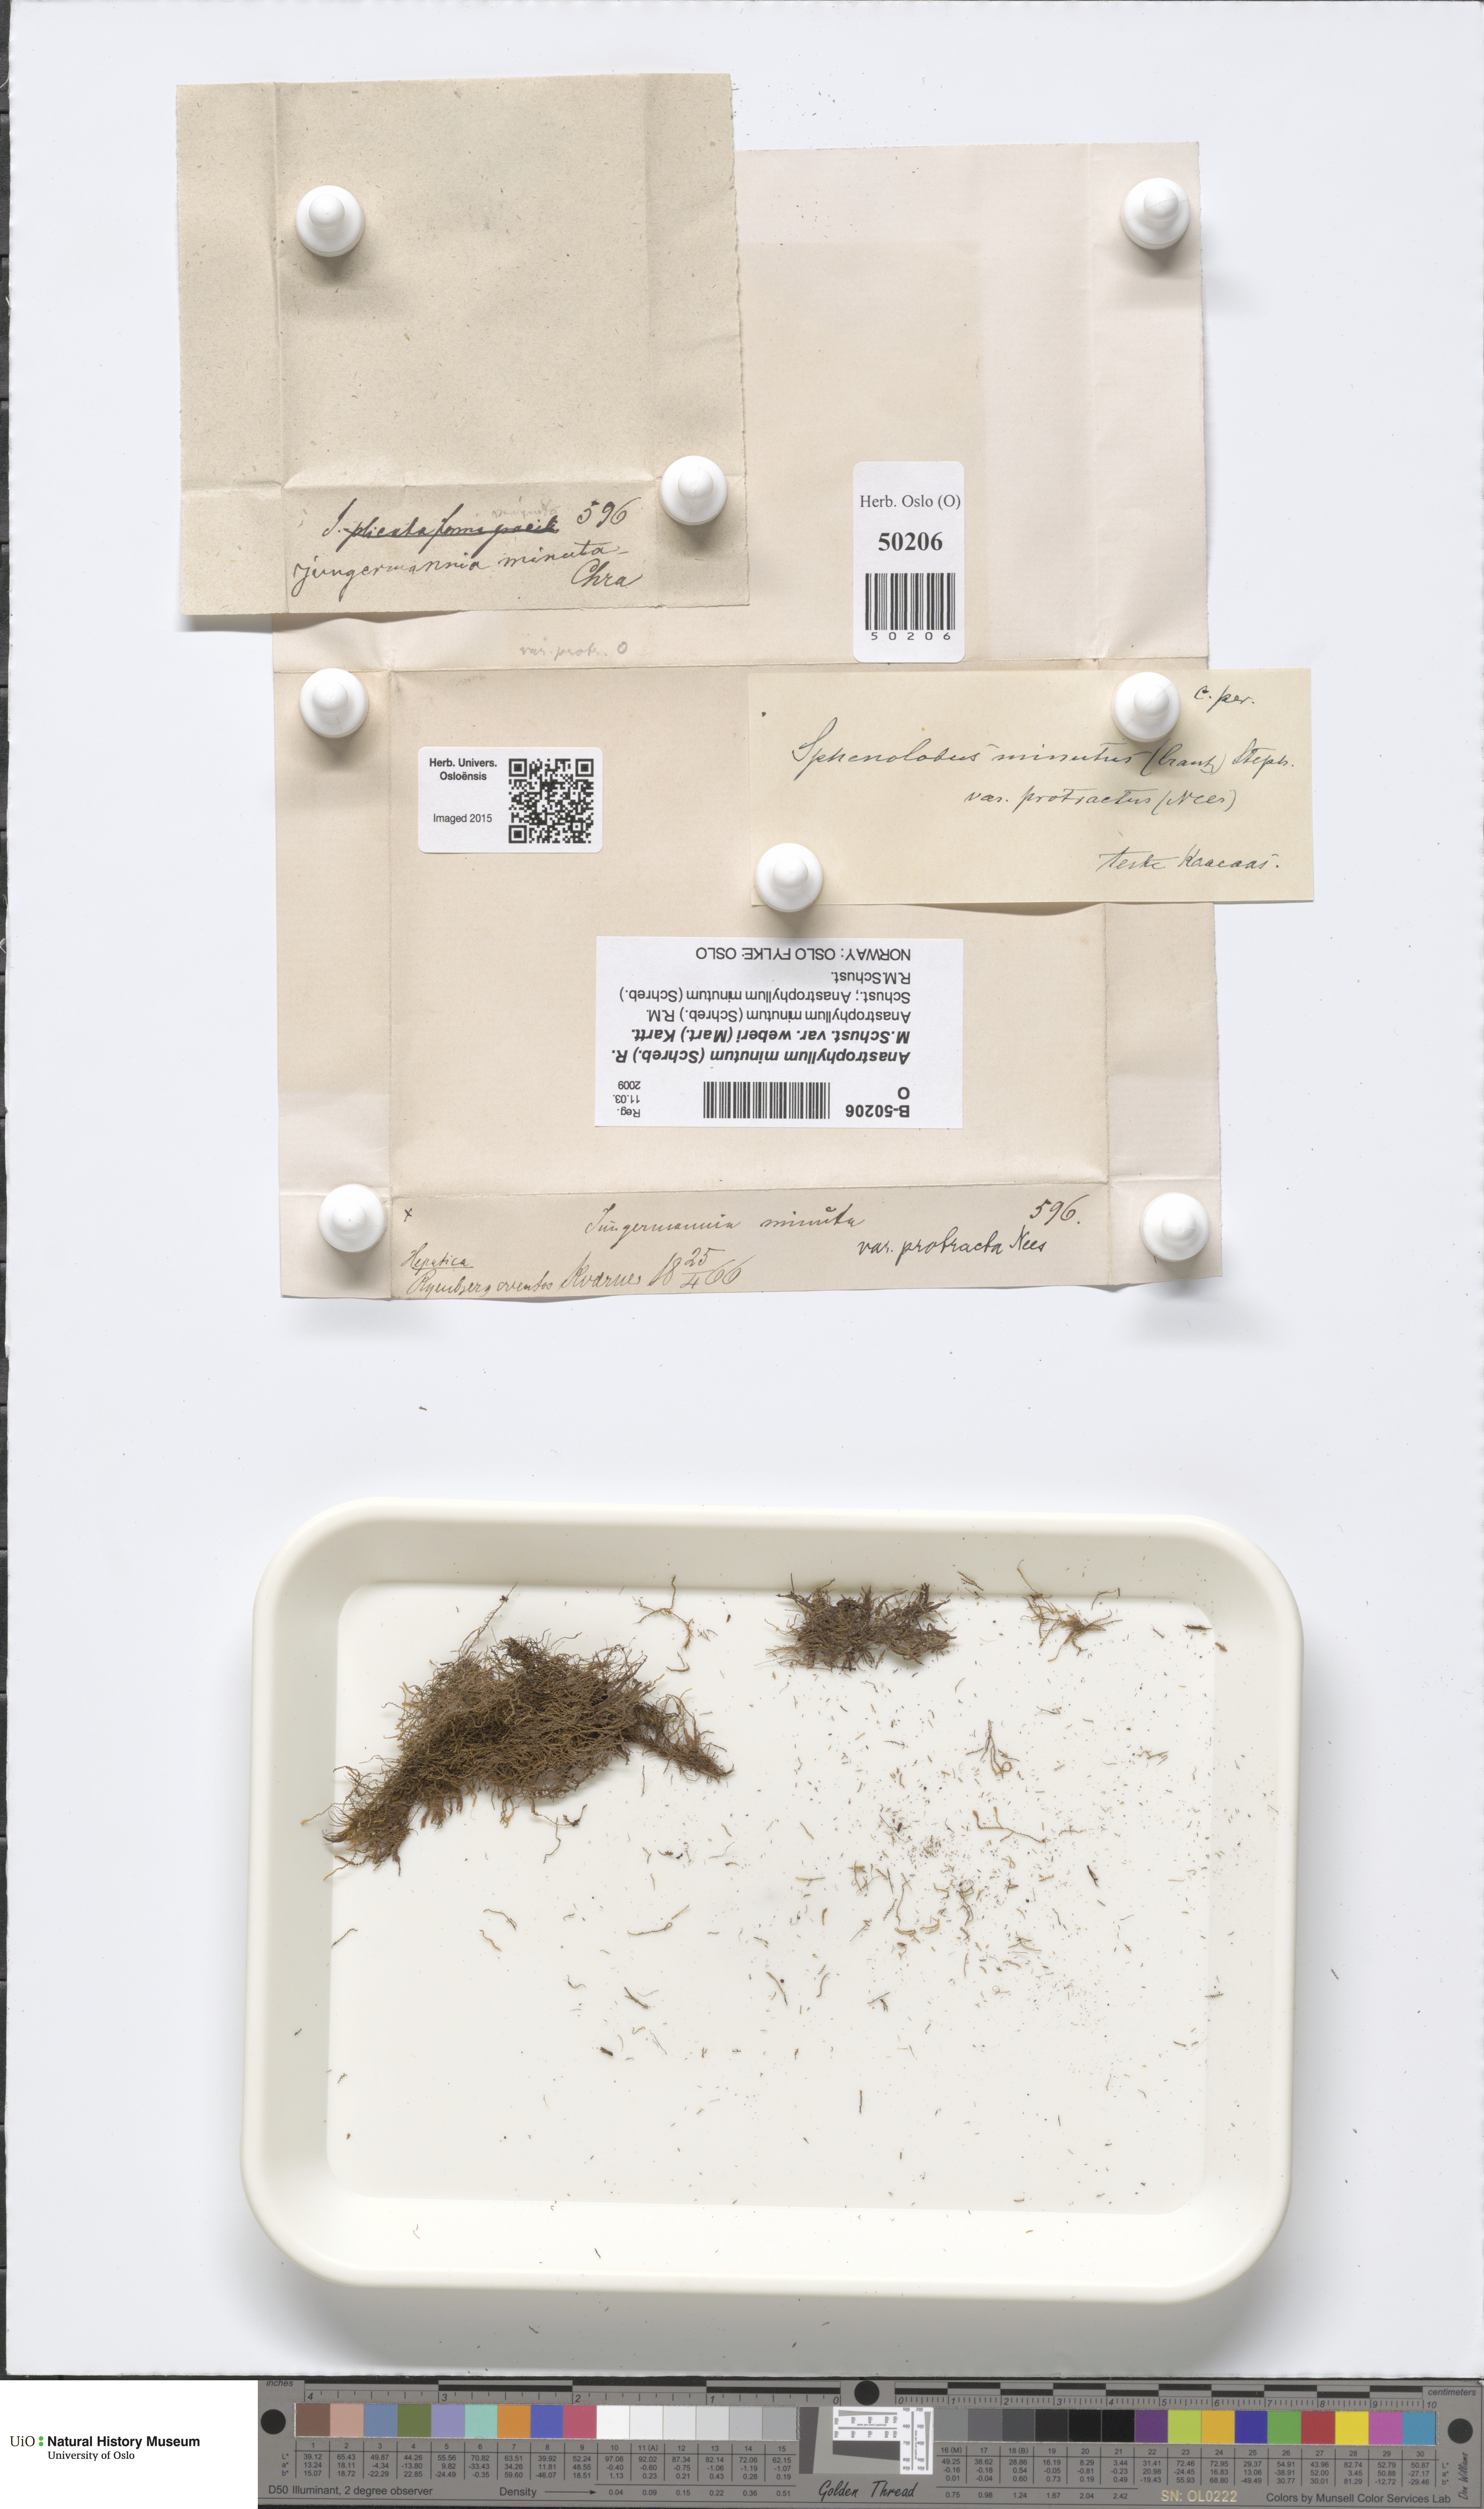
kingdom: Plantae
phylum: Marchantiophyta
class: Jungermanniopsida
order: Jungermanniales
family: Anastrophyllaceae
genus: Sphenolobus
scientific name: Sphenolobus minutus
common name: Comb notchwort
